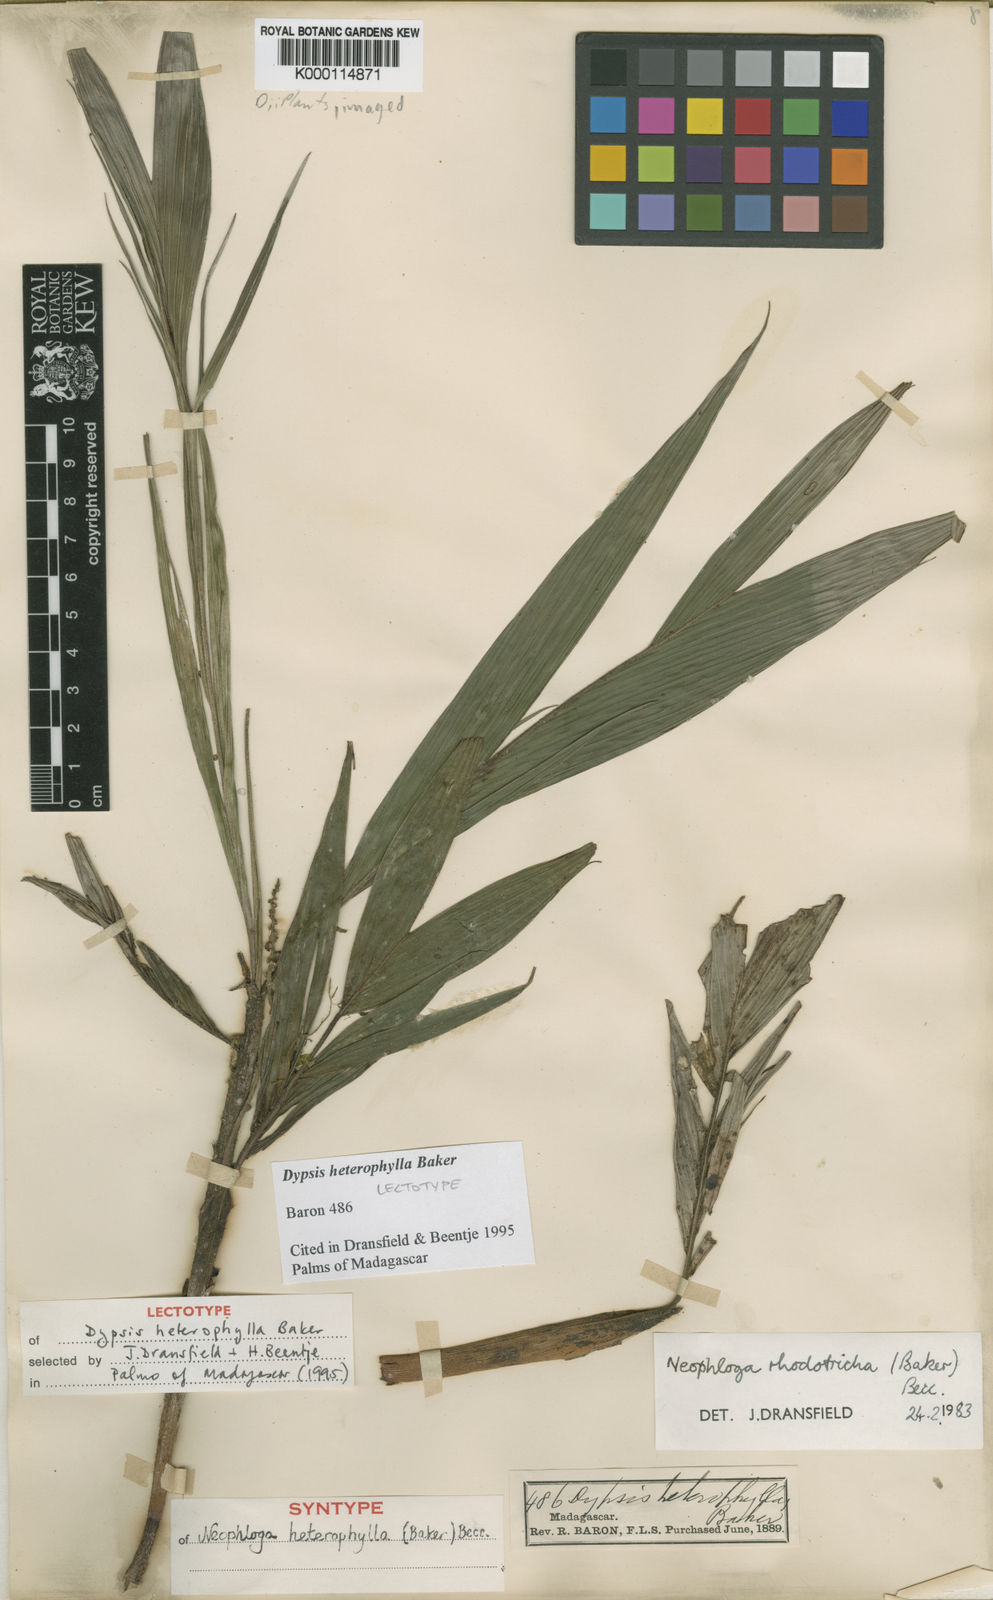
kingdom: Plantae
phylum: Tracheophyta
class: Liliopsida
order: Arecales
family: Arecaceae
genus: Dypsis
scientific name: Dypsis heterophylla
